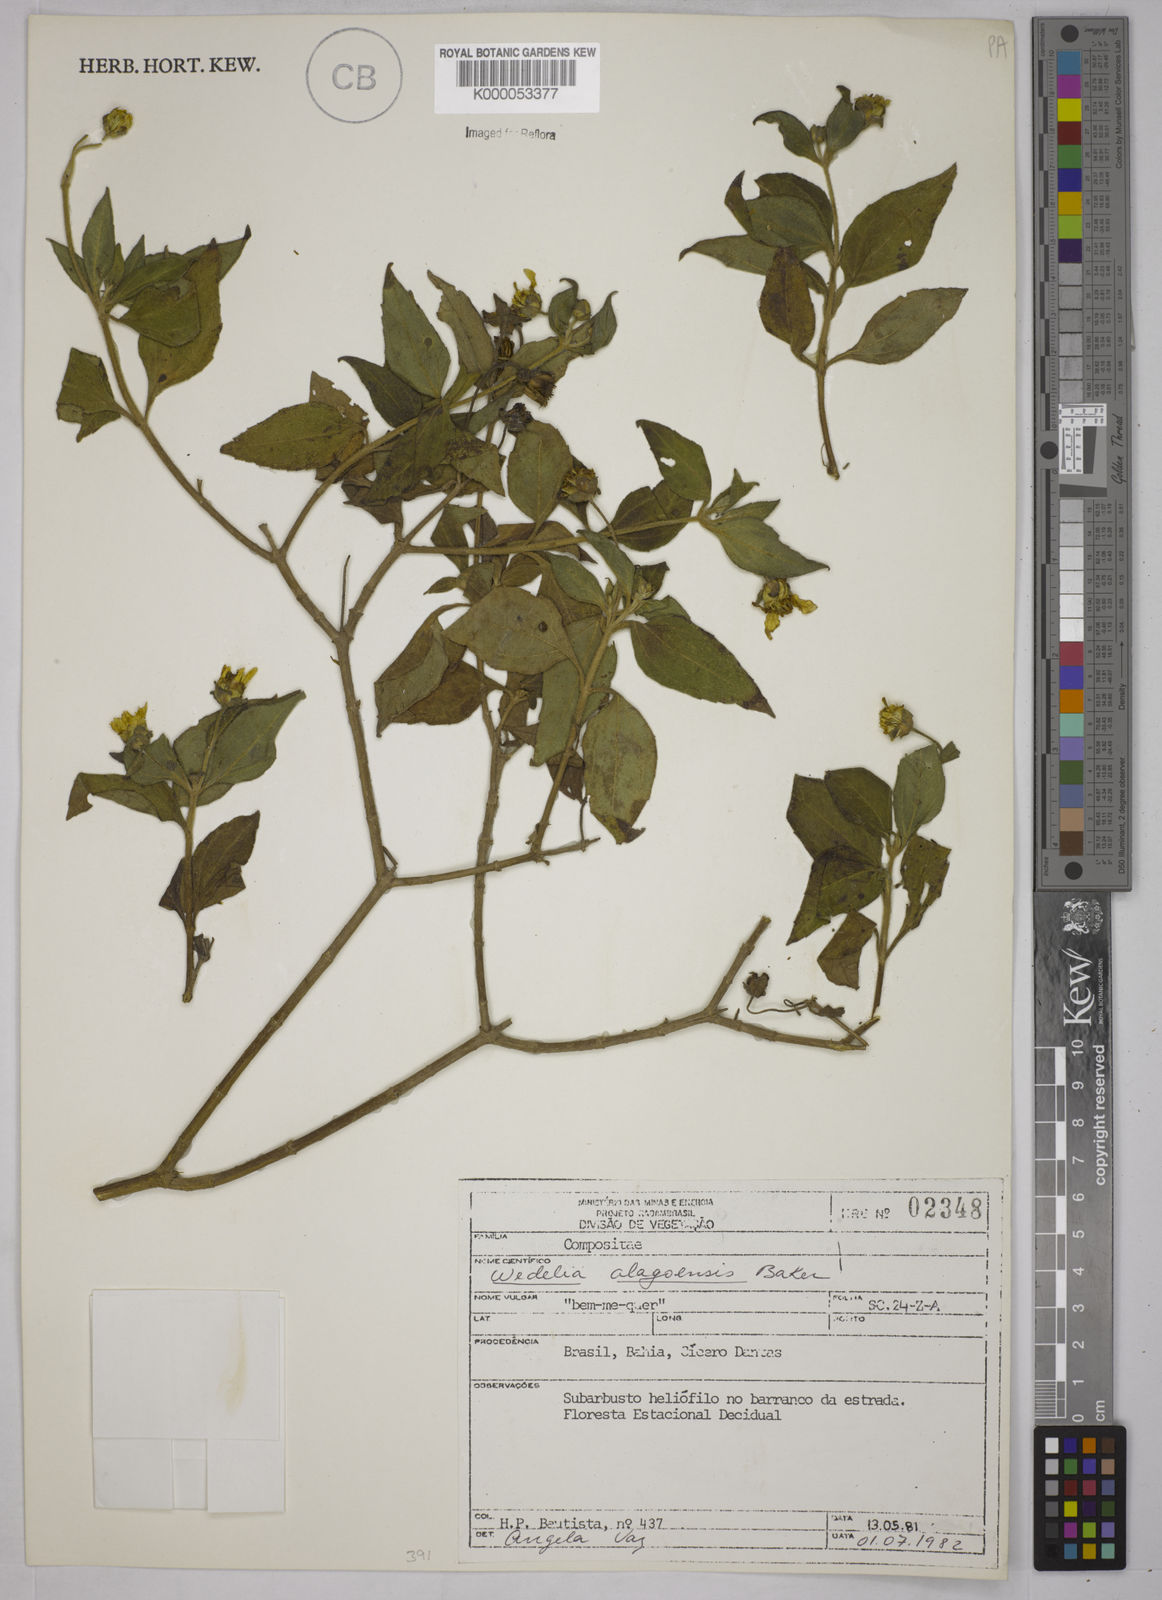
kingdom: Plantae
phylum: Tracheophyta
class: Magnoliopsida
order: Asterales
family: Asteraceae
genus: Wedelia
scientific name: Wedelia alagoensis
